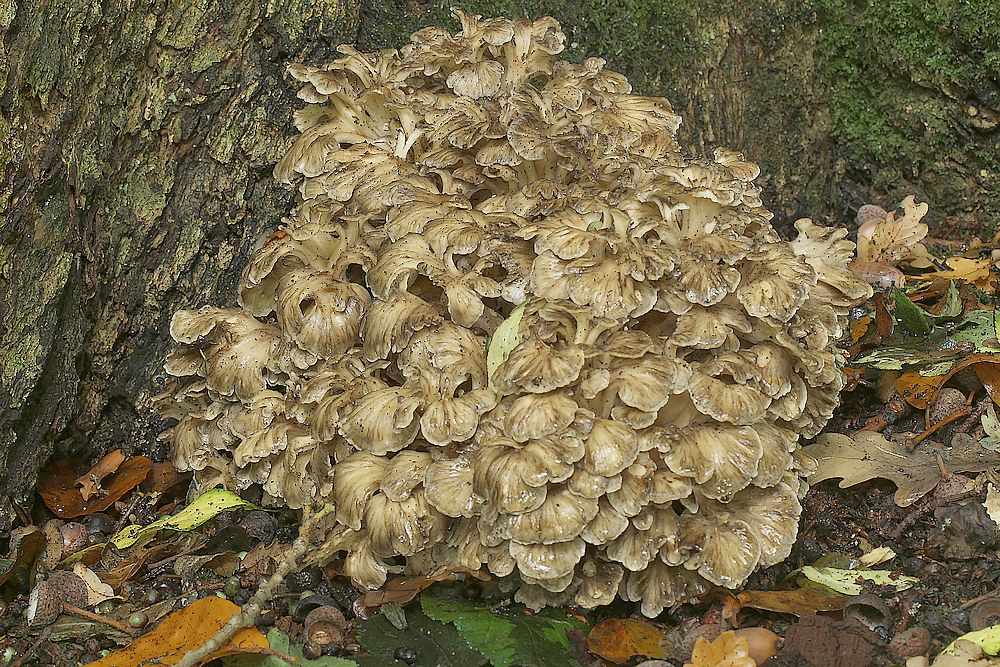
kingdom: Fungi
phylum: Basidiomycota
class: Agaricomycetes
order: Polyporales
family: Grifolaceae
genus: Grifola
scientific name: Grifola frondosa
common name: tueporesvamp
